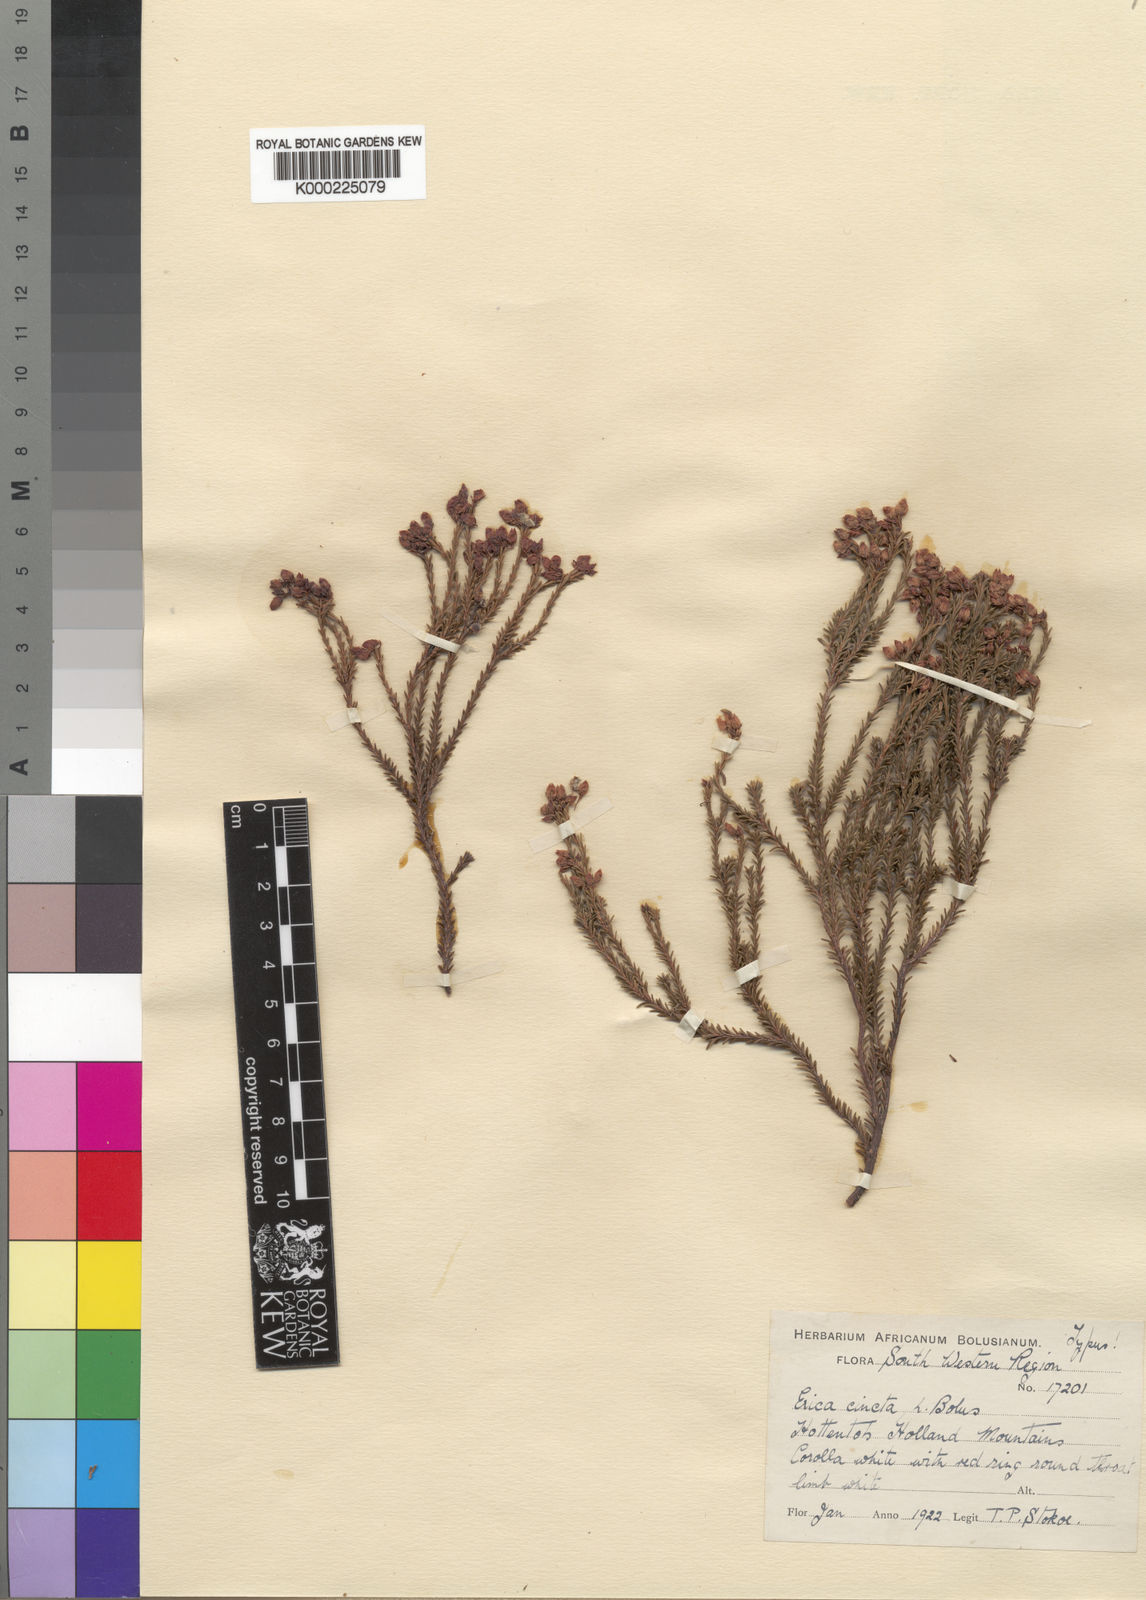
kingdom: Plantae
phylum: Tracheophyta
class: Magnoliopsida
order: Ericales
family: Ericaceae
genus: Erica
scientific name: Erica cincta
